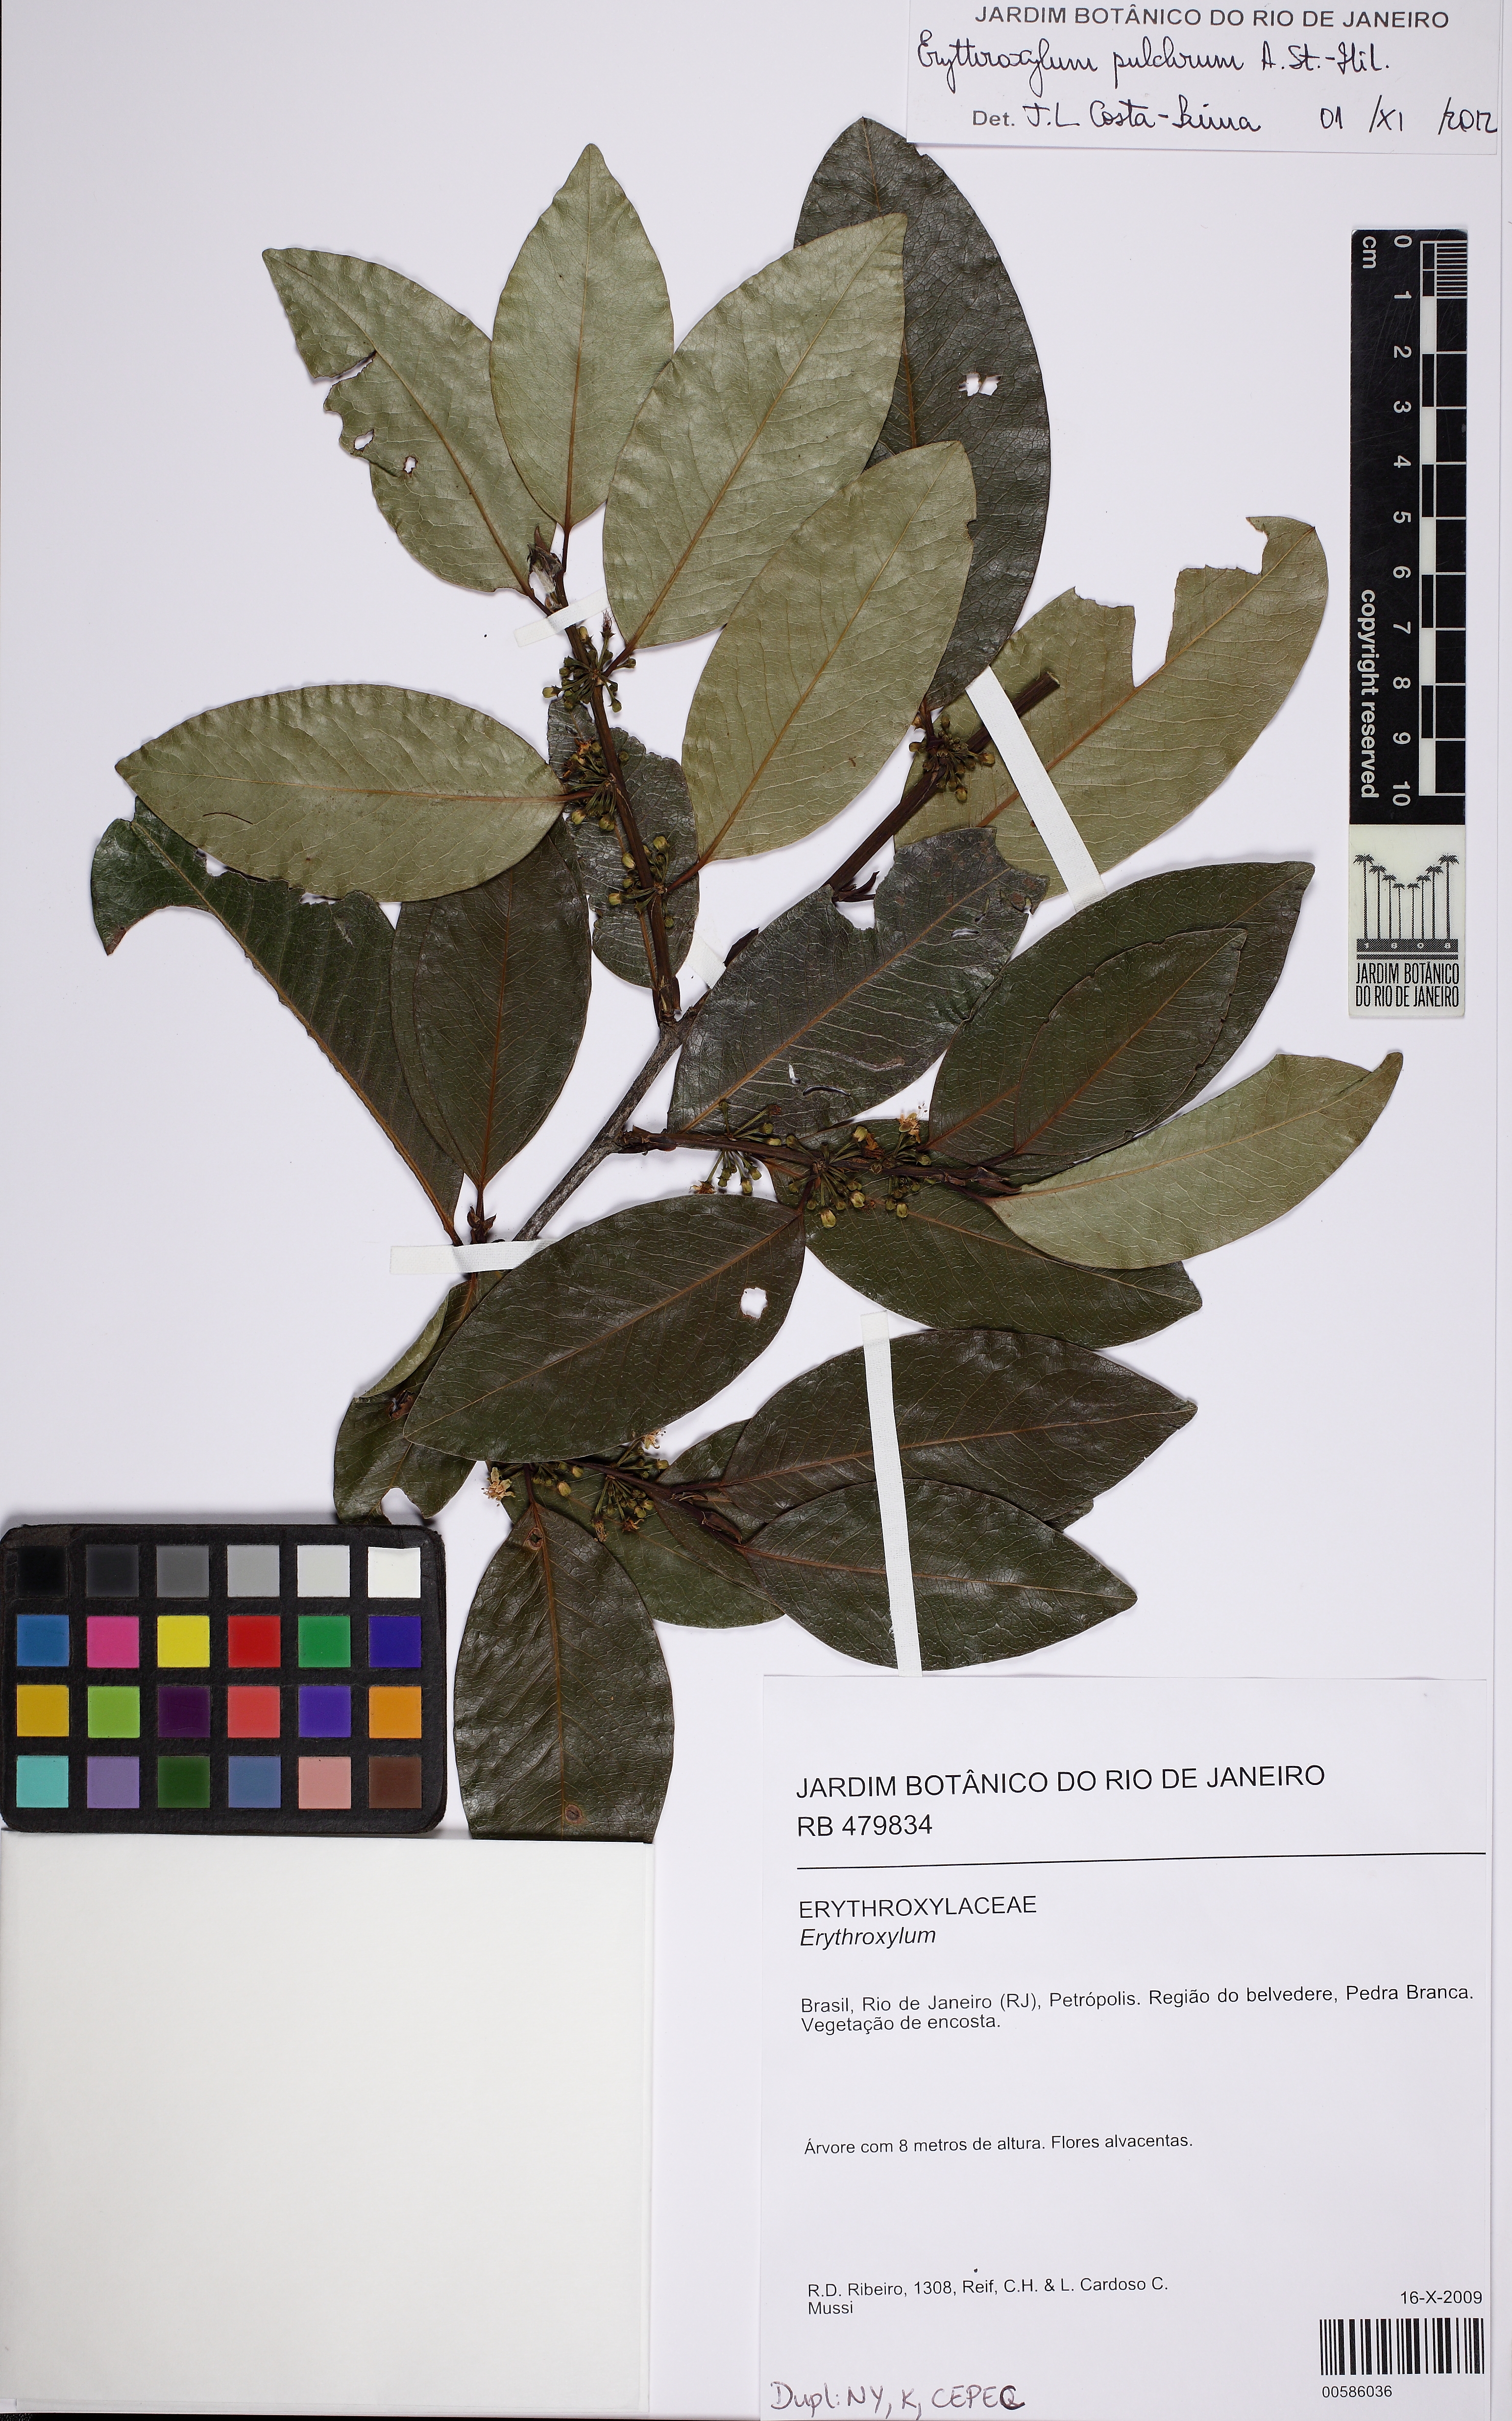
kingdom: Plantae
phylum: Tracheophyta
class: Magnoliopsida
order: Malpighiales
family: Erythroxylaceae
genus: Erythroxylum
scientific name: Erythroxylum pulchrum
